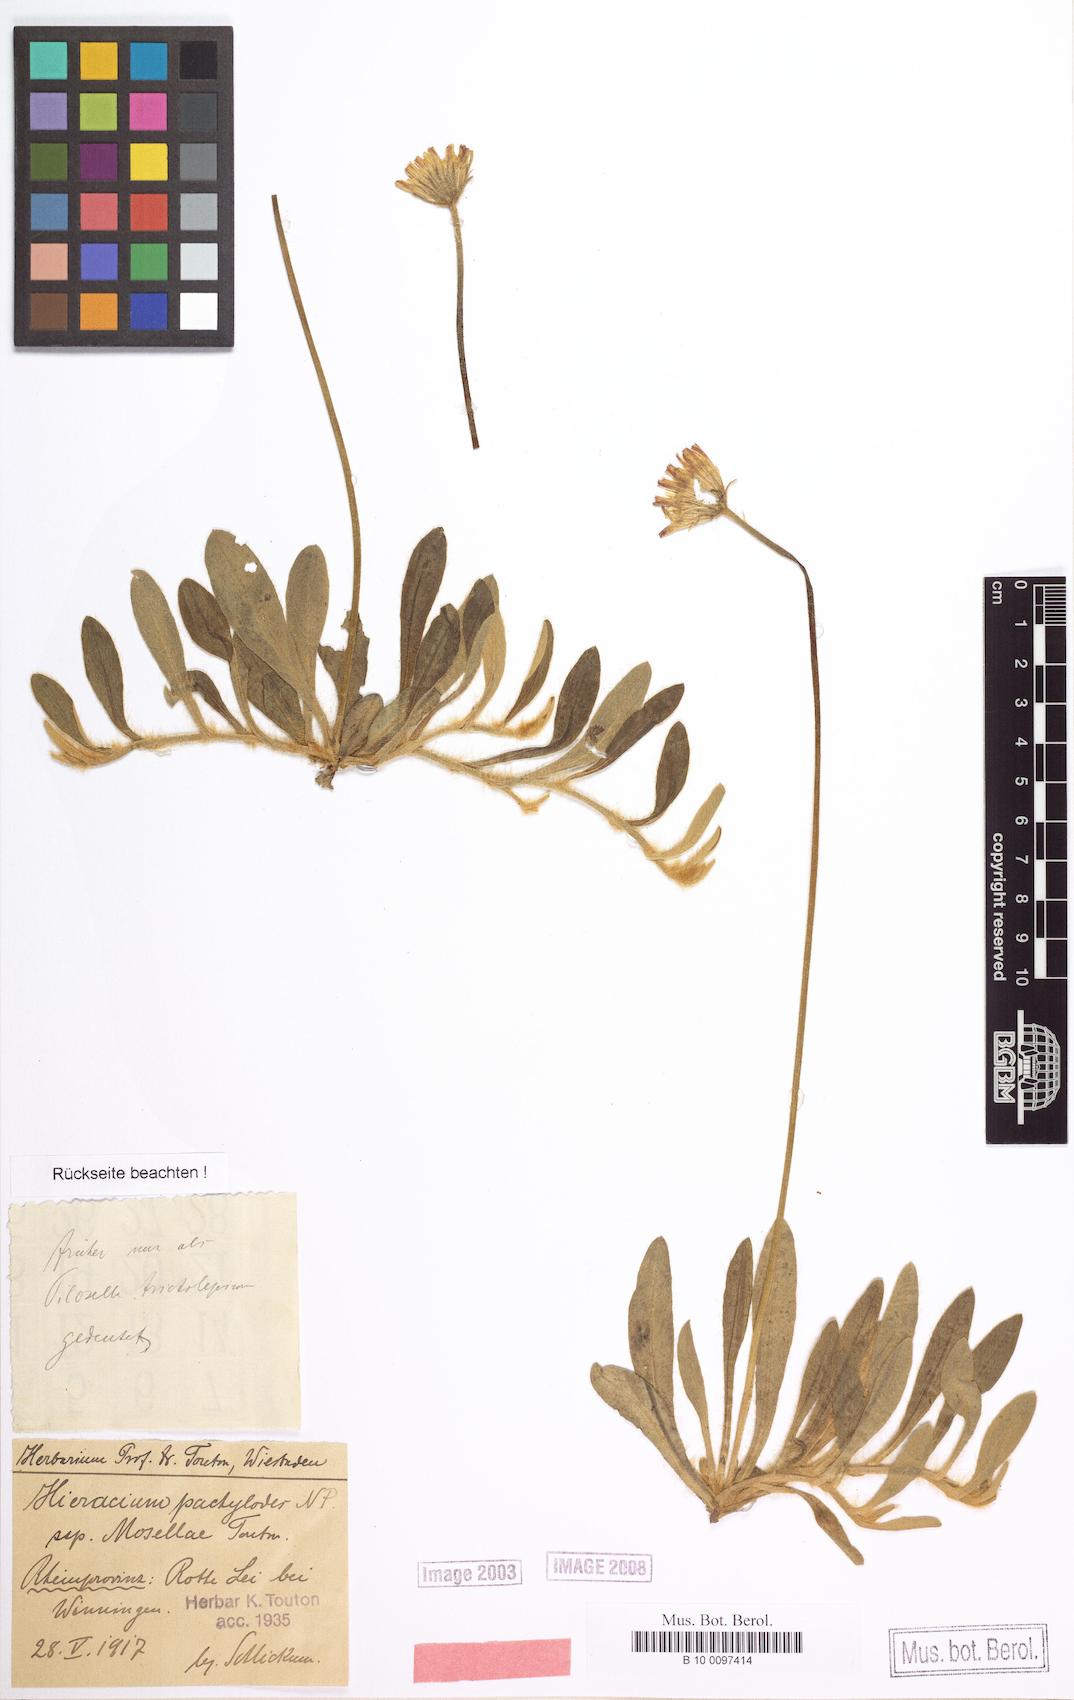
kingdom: Plantae
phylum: Tracheophyta
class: Magnoliopsida
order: Asterales
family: Asteraceae
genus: Pilosella
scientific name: Pilosella longisquama
